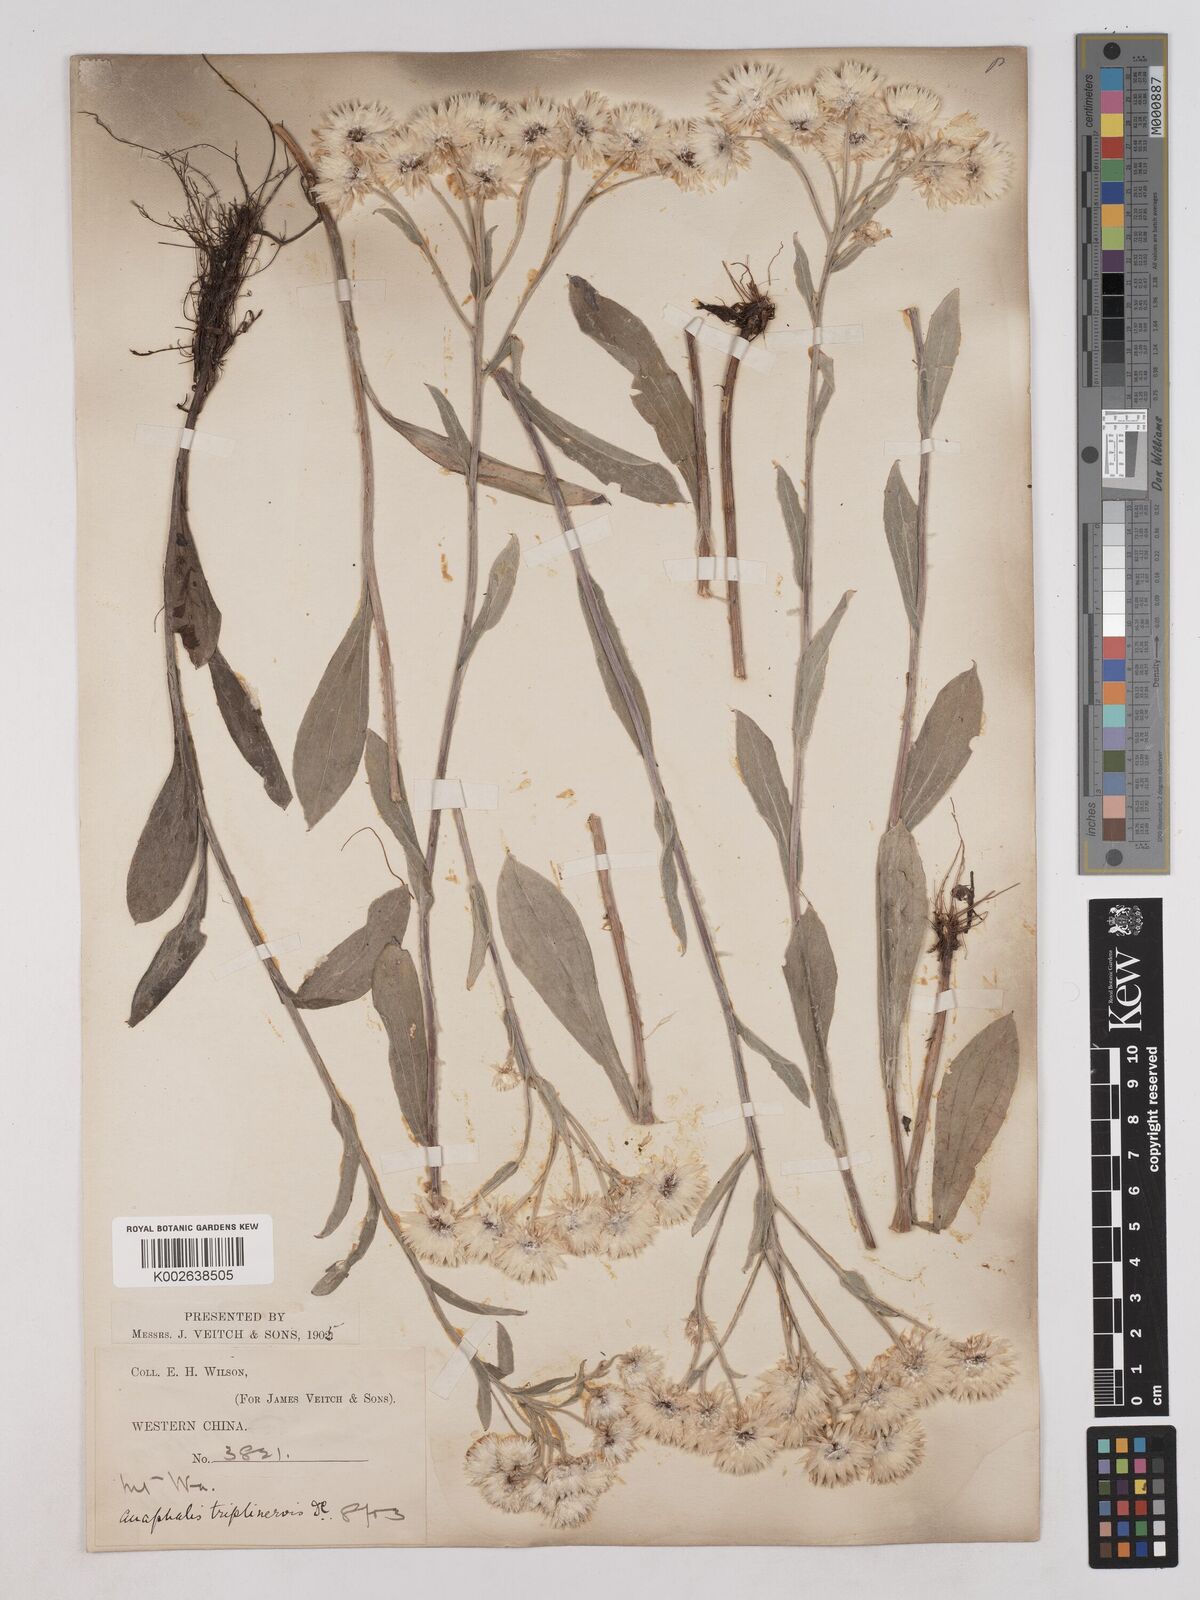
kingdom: Plantae
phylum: Tracheophyta
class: Magnoliopsida
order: Asterales
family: Asteraceae
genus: Anaphalis
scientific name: Anaphalis nepalensis
